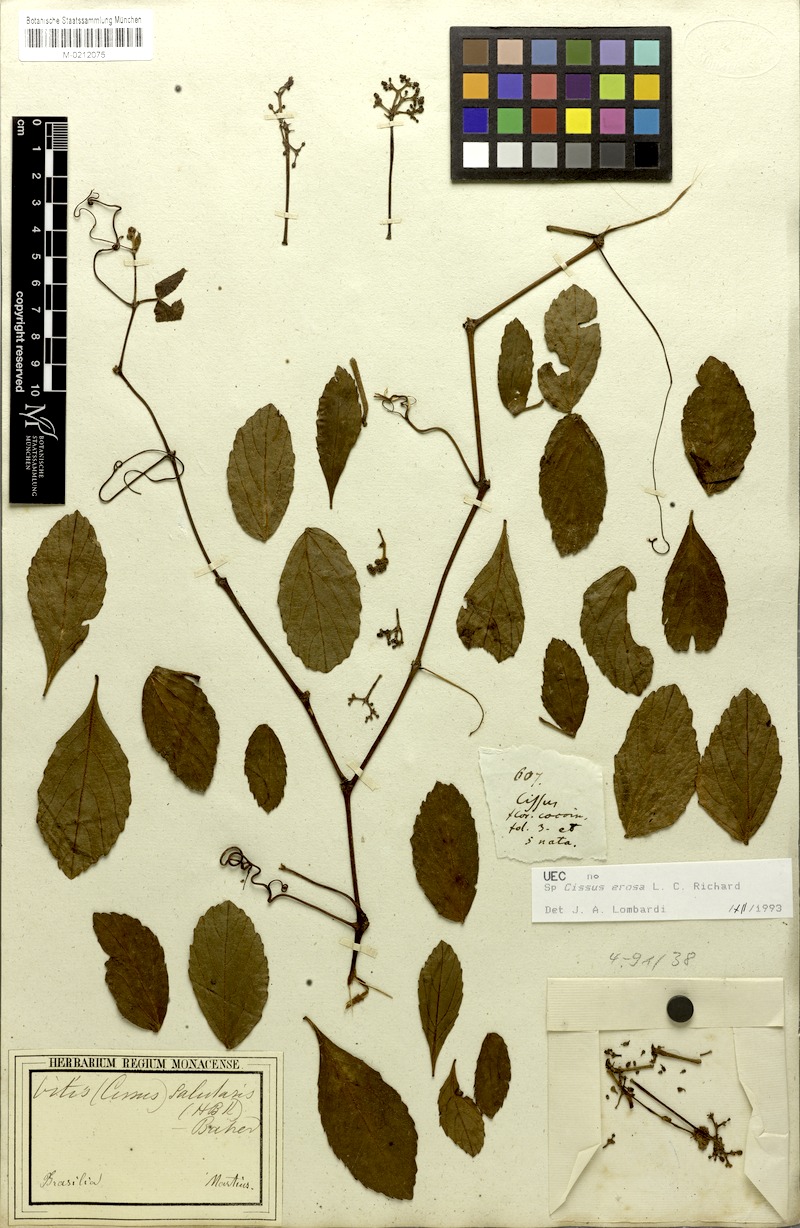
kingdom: Plantae
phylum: Tracheophyta
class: Magnoliopsida
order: Vitales
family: Vitaceae
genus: Cissus
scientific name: Cissus erosa
